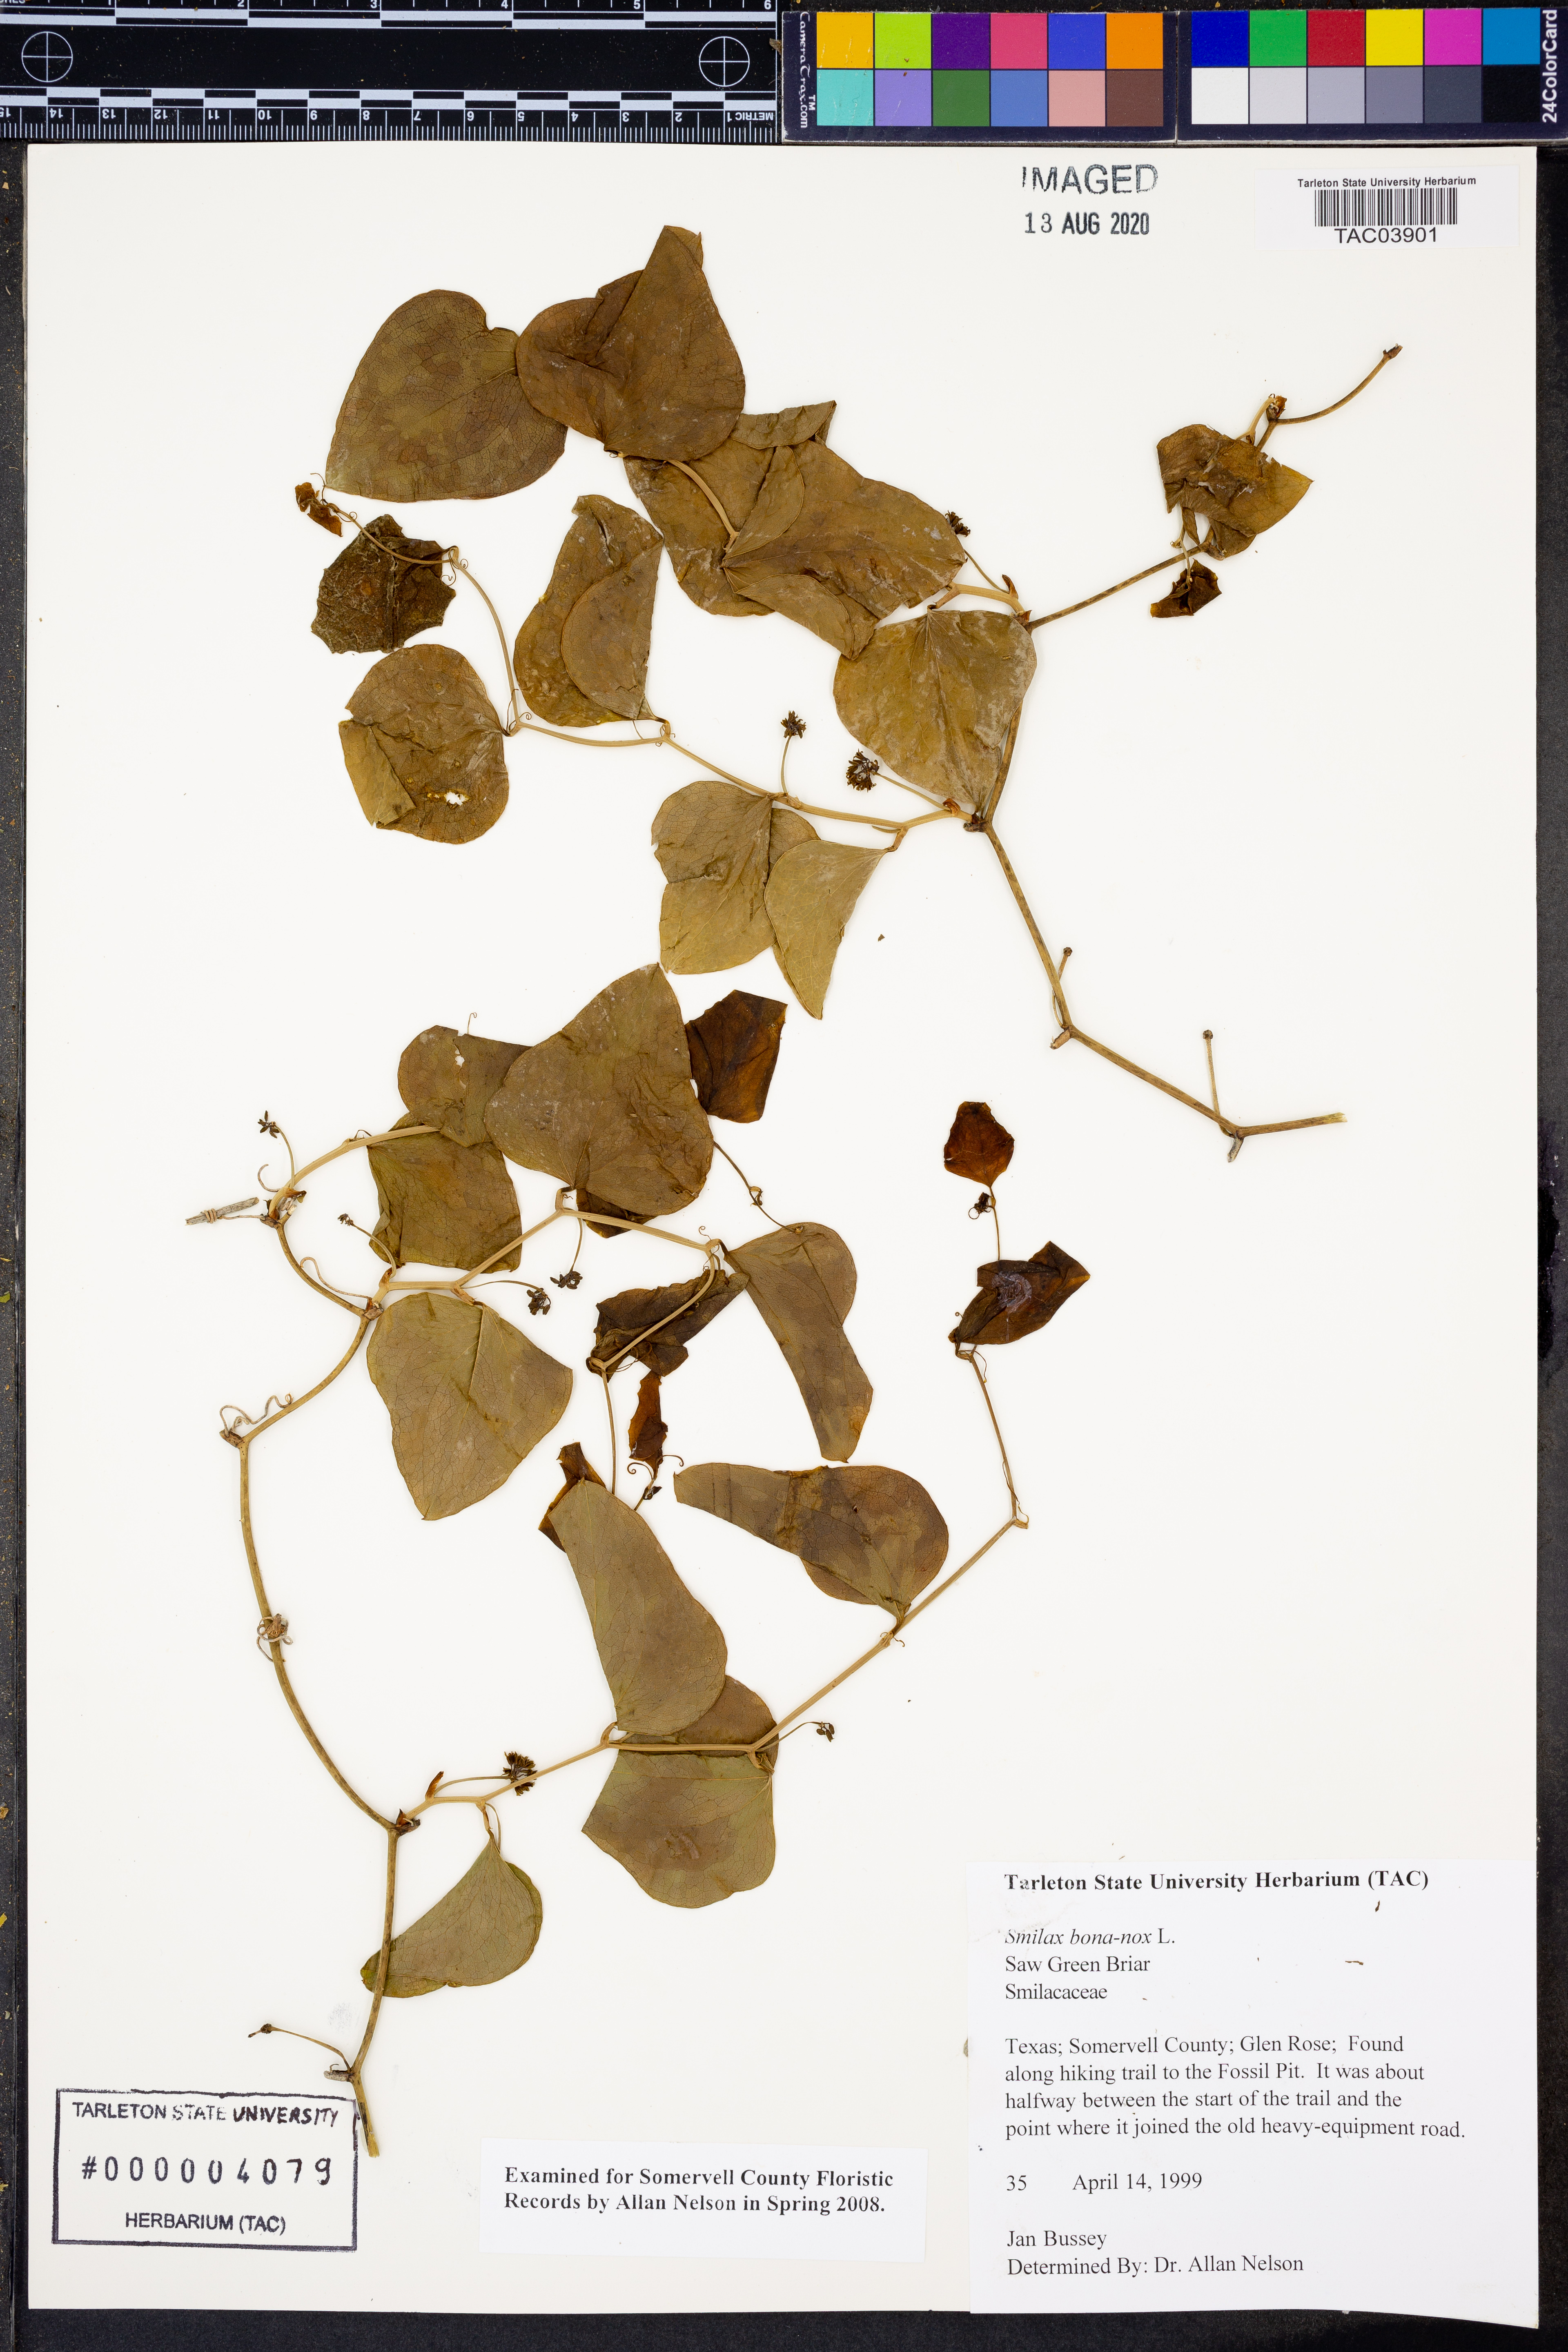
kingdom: Plantae
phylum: Tracheophyta
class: Liliopsida
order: Liliales
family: Smilacaceae
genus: Smilax
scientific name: Smilax bona-nox
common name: Catbrier
